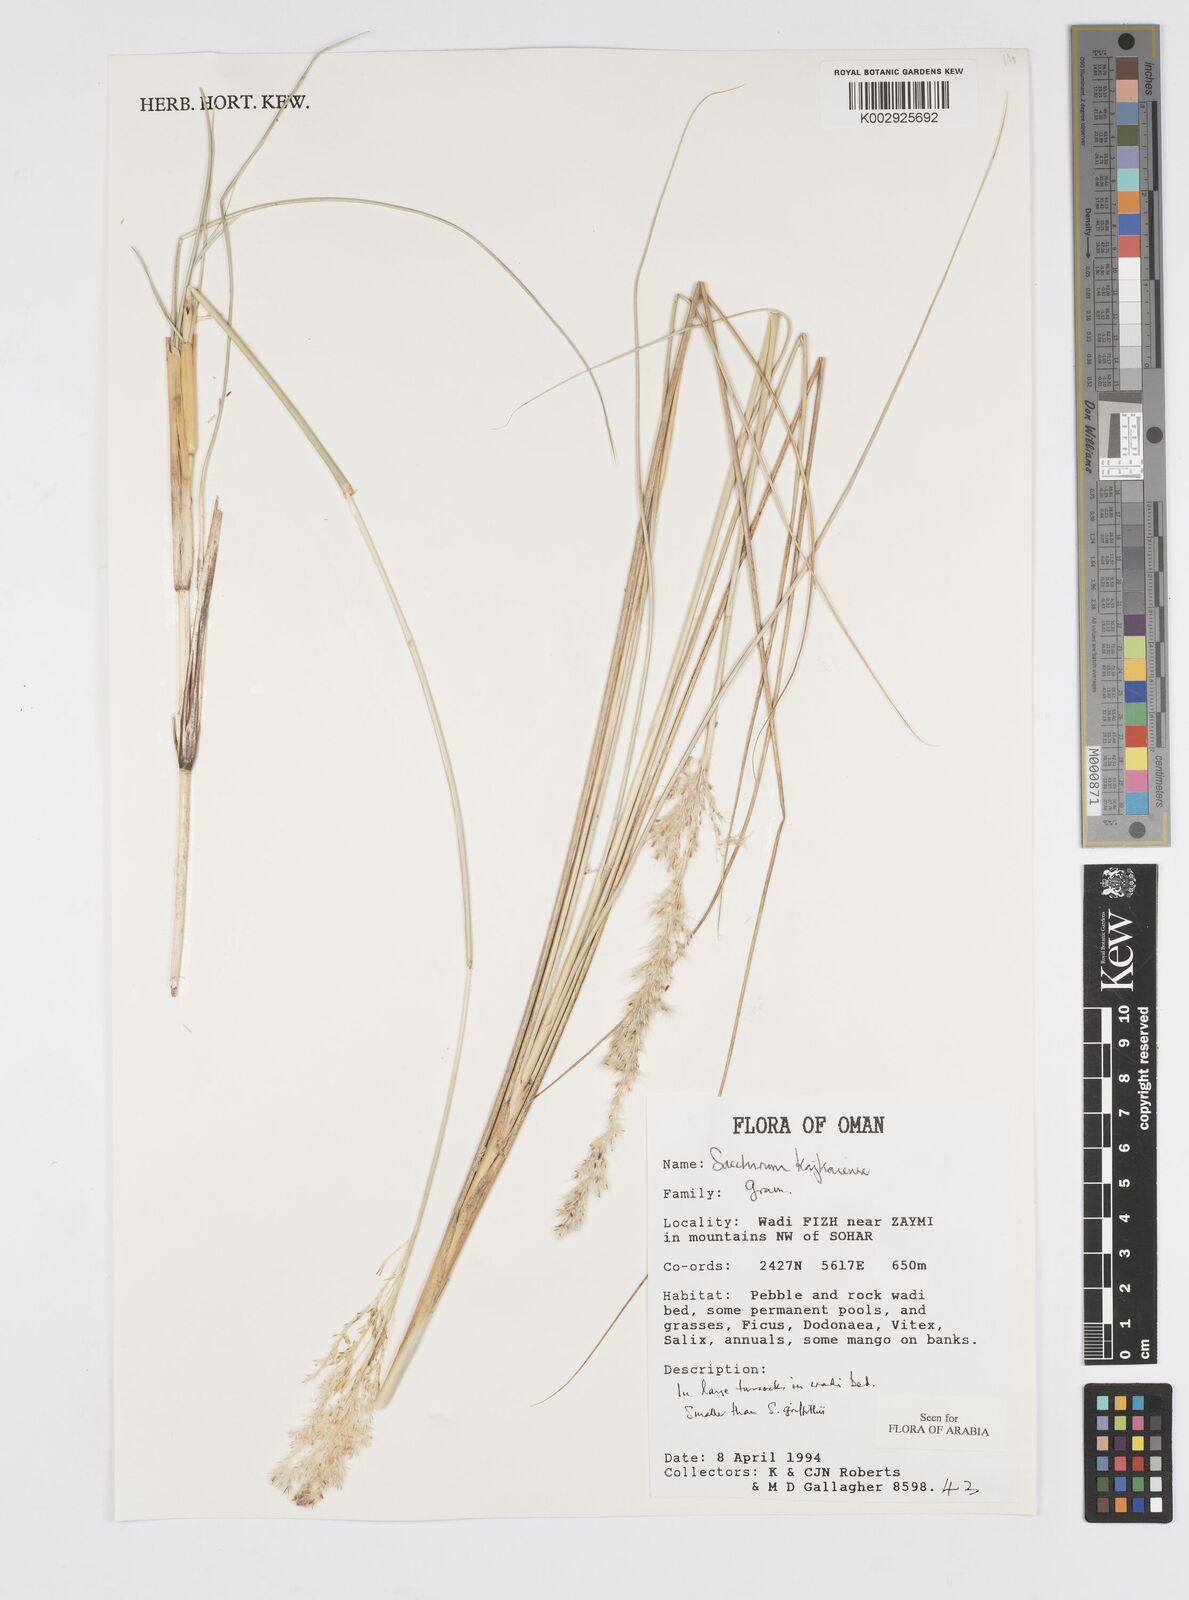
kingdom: Plantae
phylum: Tracheophyta
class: Liliopsida
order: Poales
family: Poaceae
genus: Saccharum
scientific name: Saccharum kajkaiense
